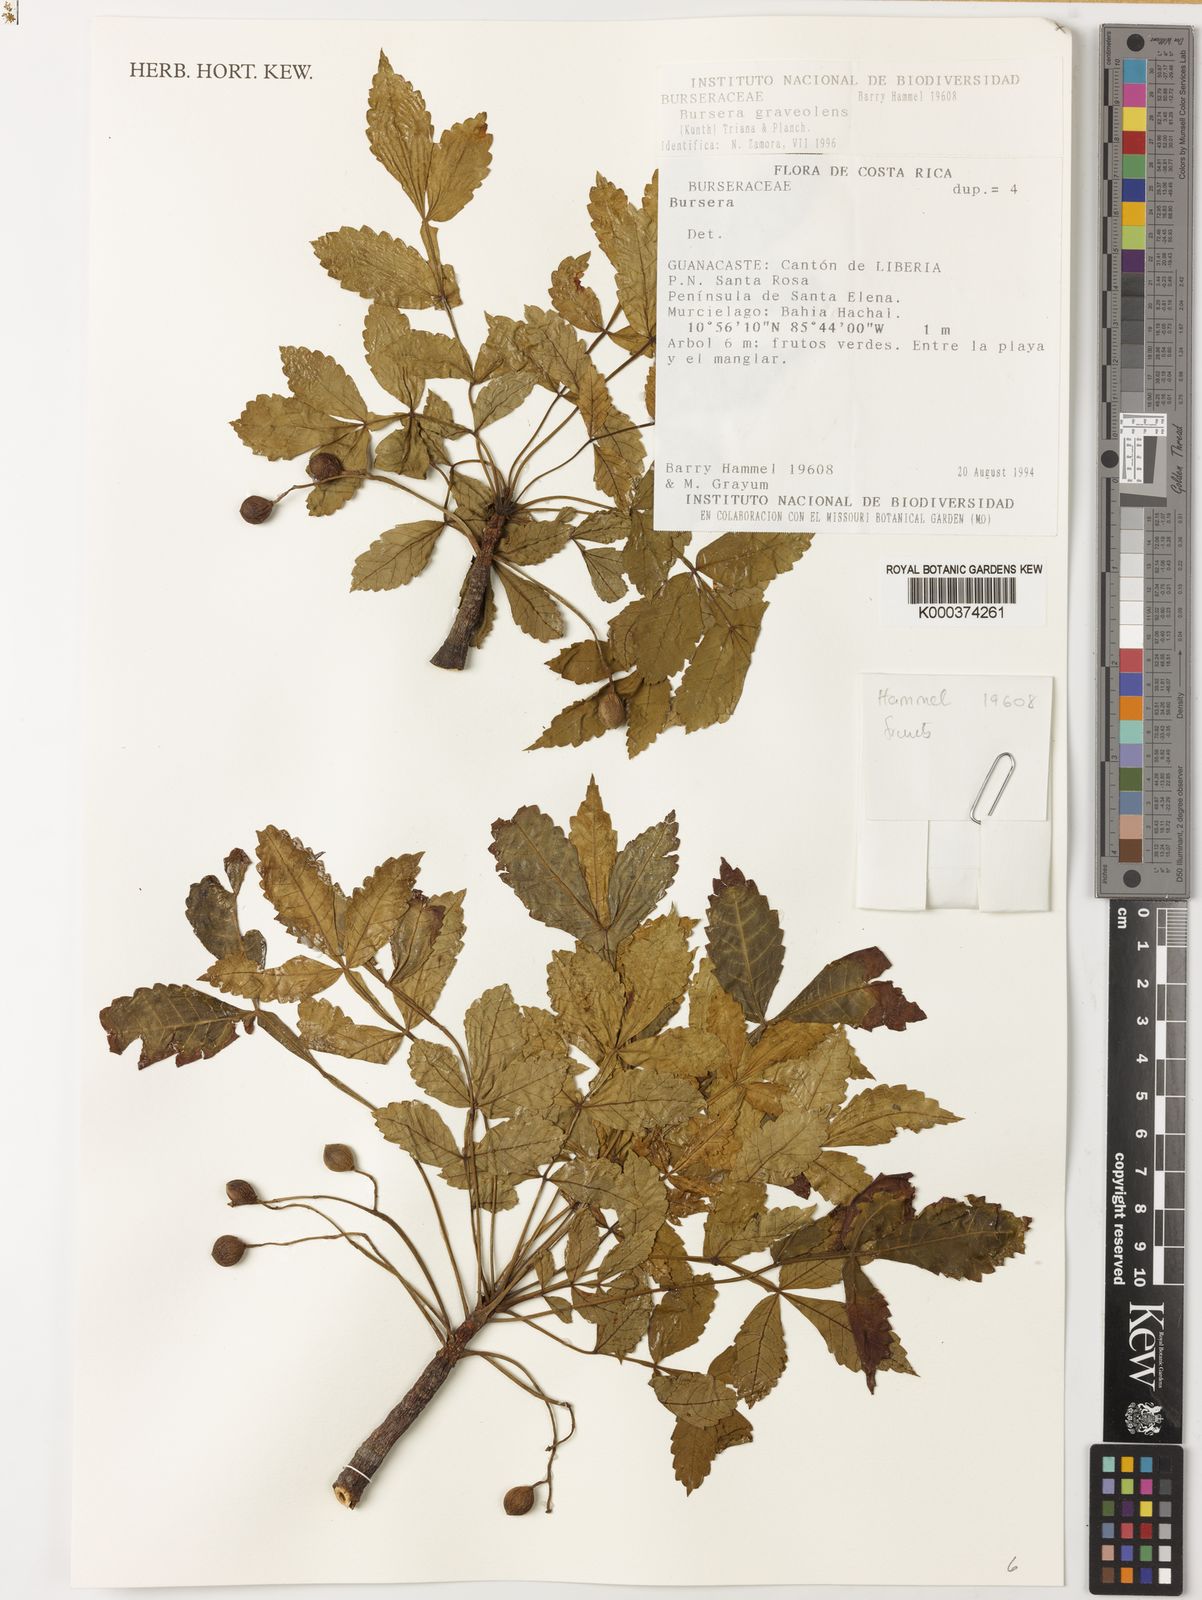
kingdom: Plantae
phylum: Tracheophyta
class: Magnoliopsida
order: Sapindales
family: Burseraceae
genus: Bursera
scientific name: Bursera graveolens
